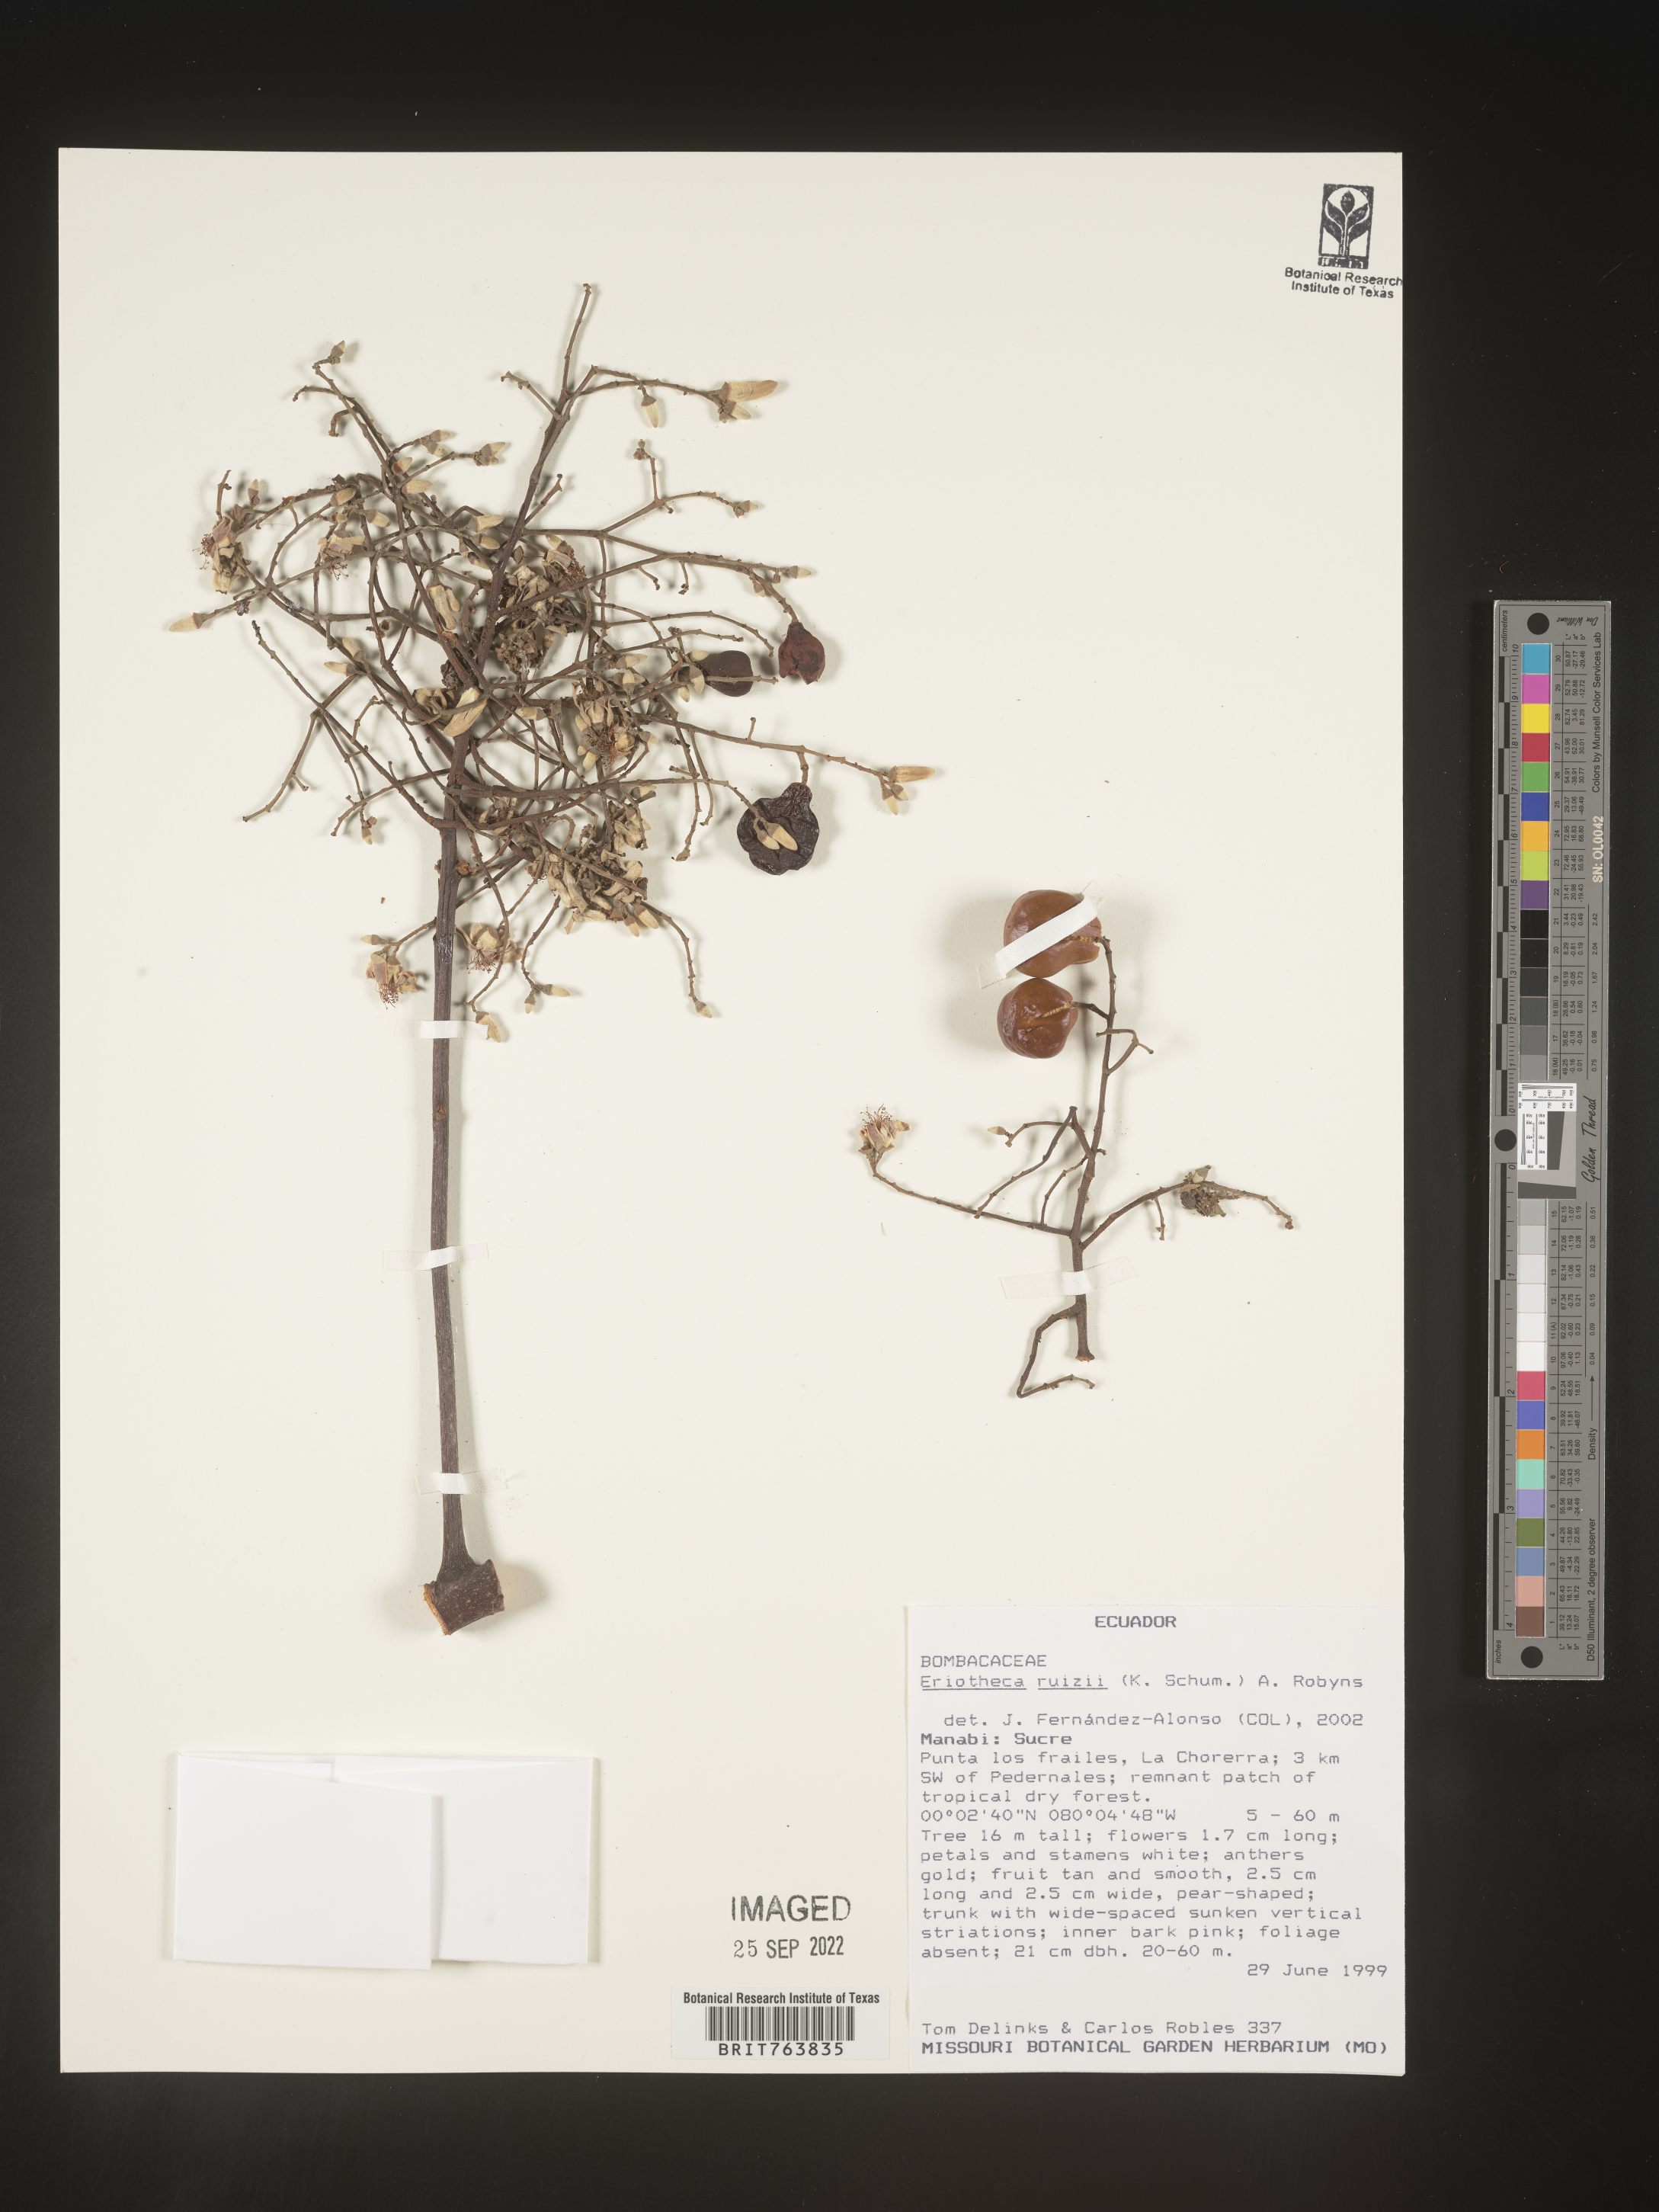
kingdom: Plantae
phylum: Tracheophyta
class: Magnoliopsida
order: Malvales
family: Malvaceae
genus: Eriotheca
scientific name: Eriotheca
